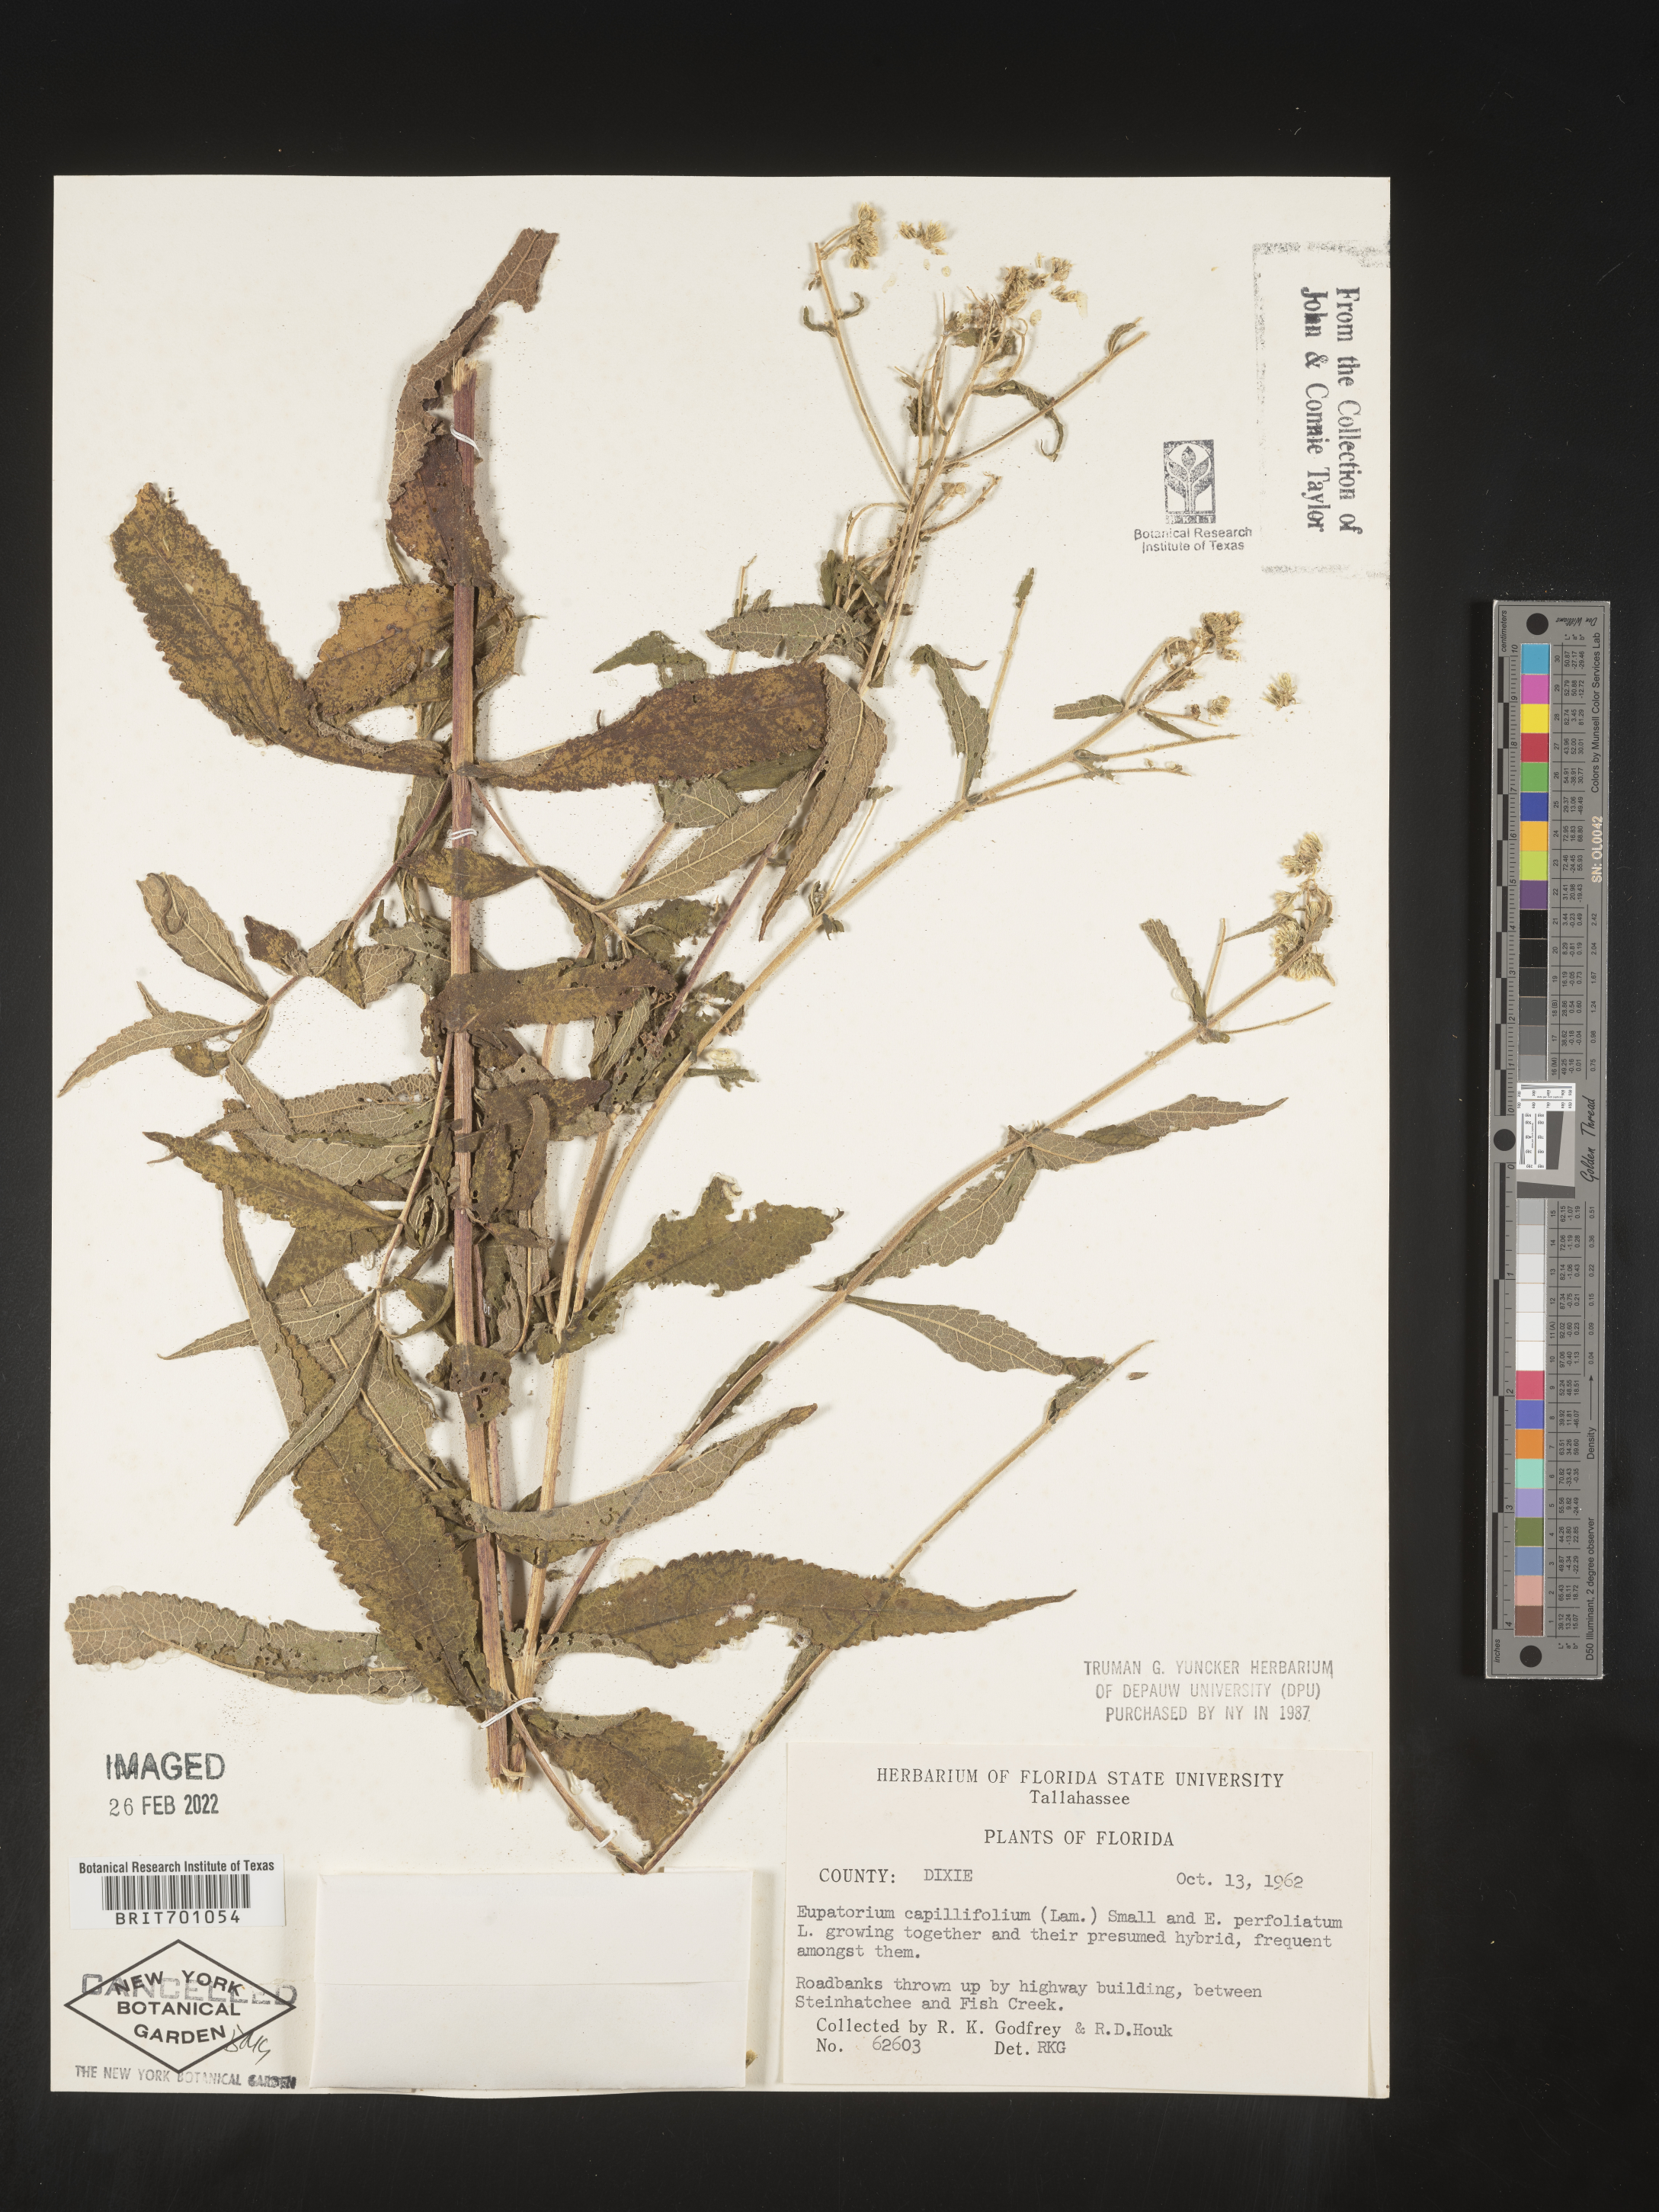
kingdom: Plantae
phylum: Tracheophyta
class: Magnoliopsida
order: Asterales
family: Asteraceae
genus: Eupatorium
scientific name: Eupatorium capillifolium
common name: Dog-fennel
